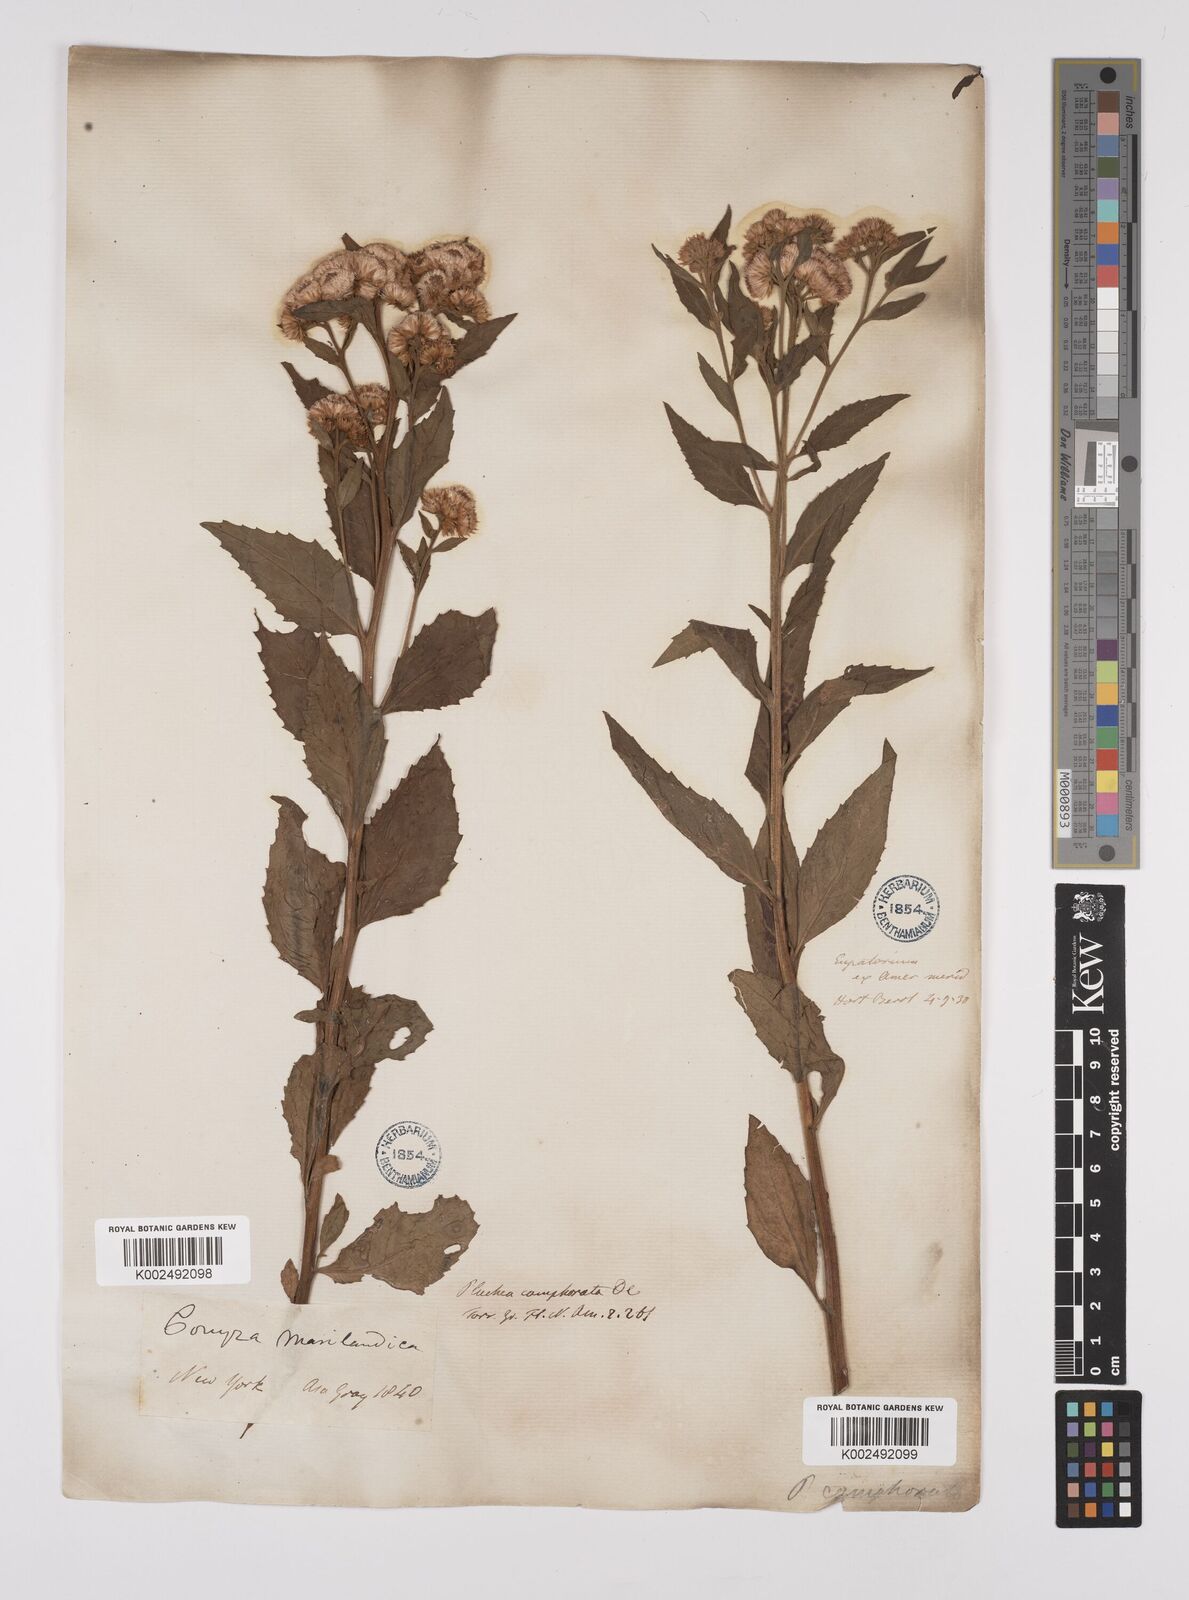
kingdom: Plantae
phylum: Tracheophyta
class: Magnoliopsida
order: Asterales
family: Asteraceae
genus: Pluchea
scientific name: Pluchea camphorata
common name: Camphor pluchea
